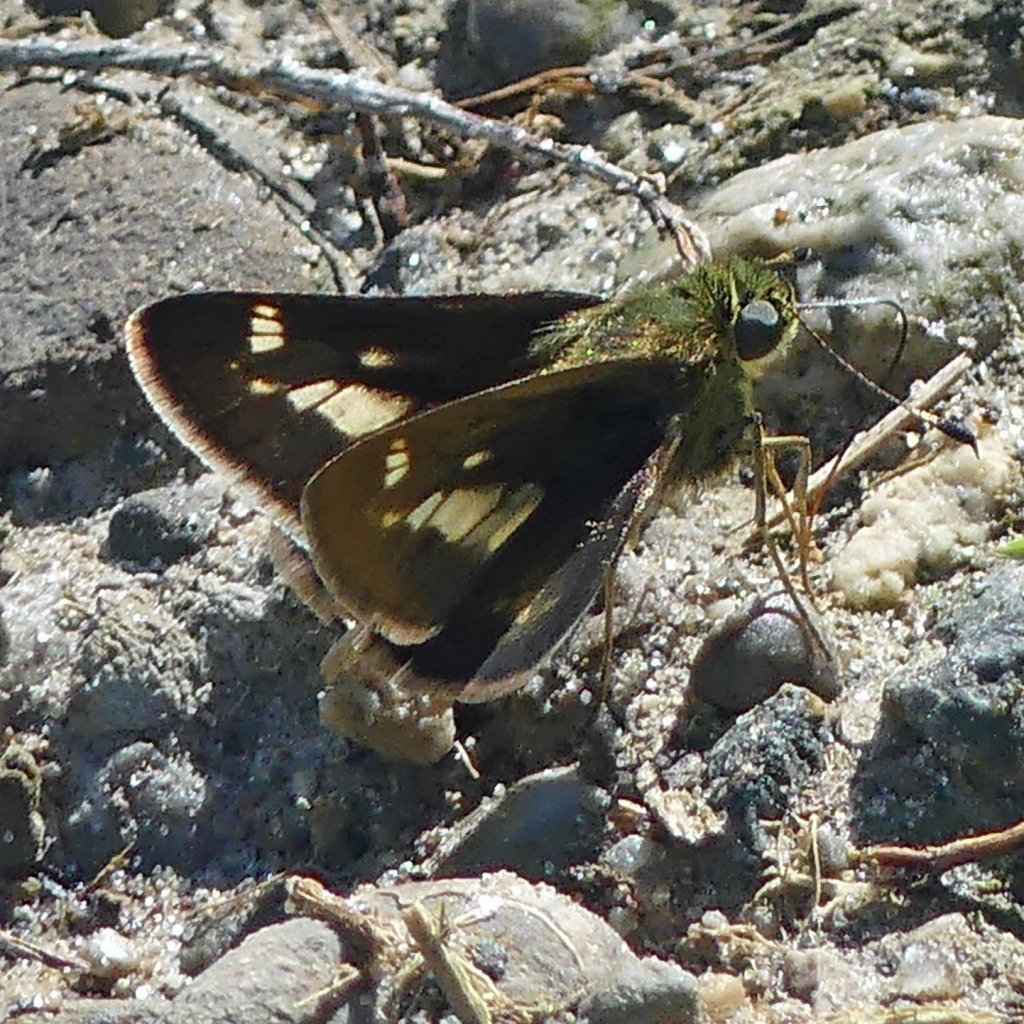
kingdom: Animalia
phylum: Arthropoda
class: Insecta
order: Lepidoptera
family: Hesperiidae
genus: Vernia
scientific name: Vernia verna
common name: Little Glassywing
